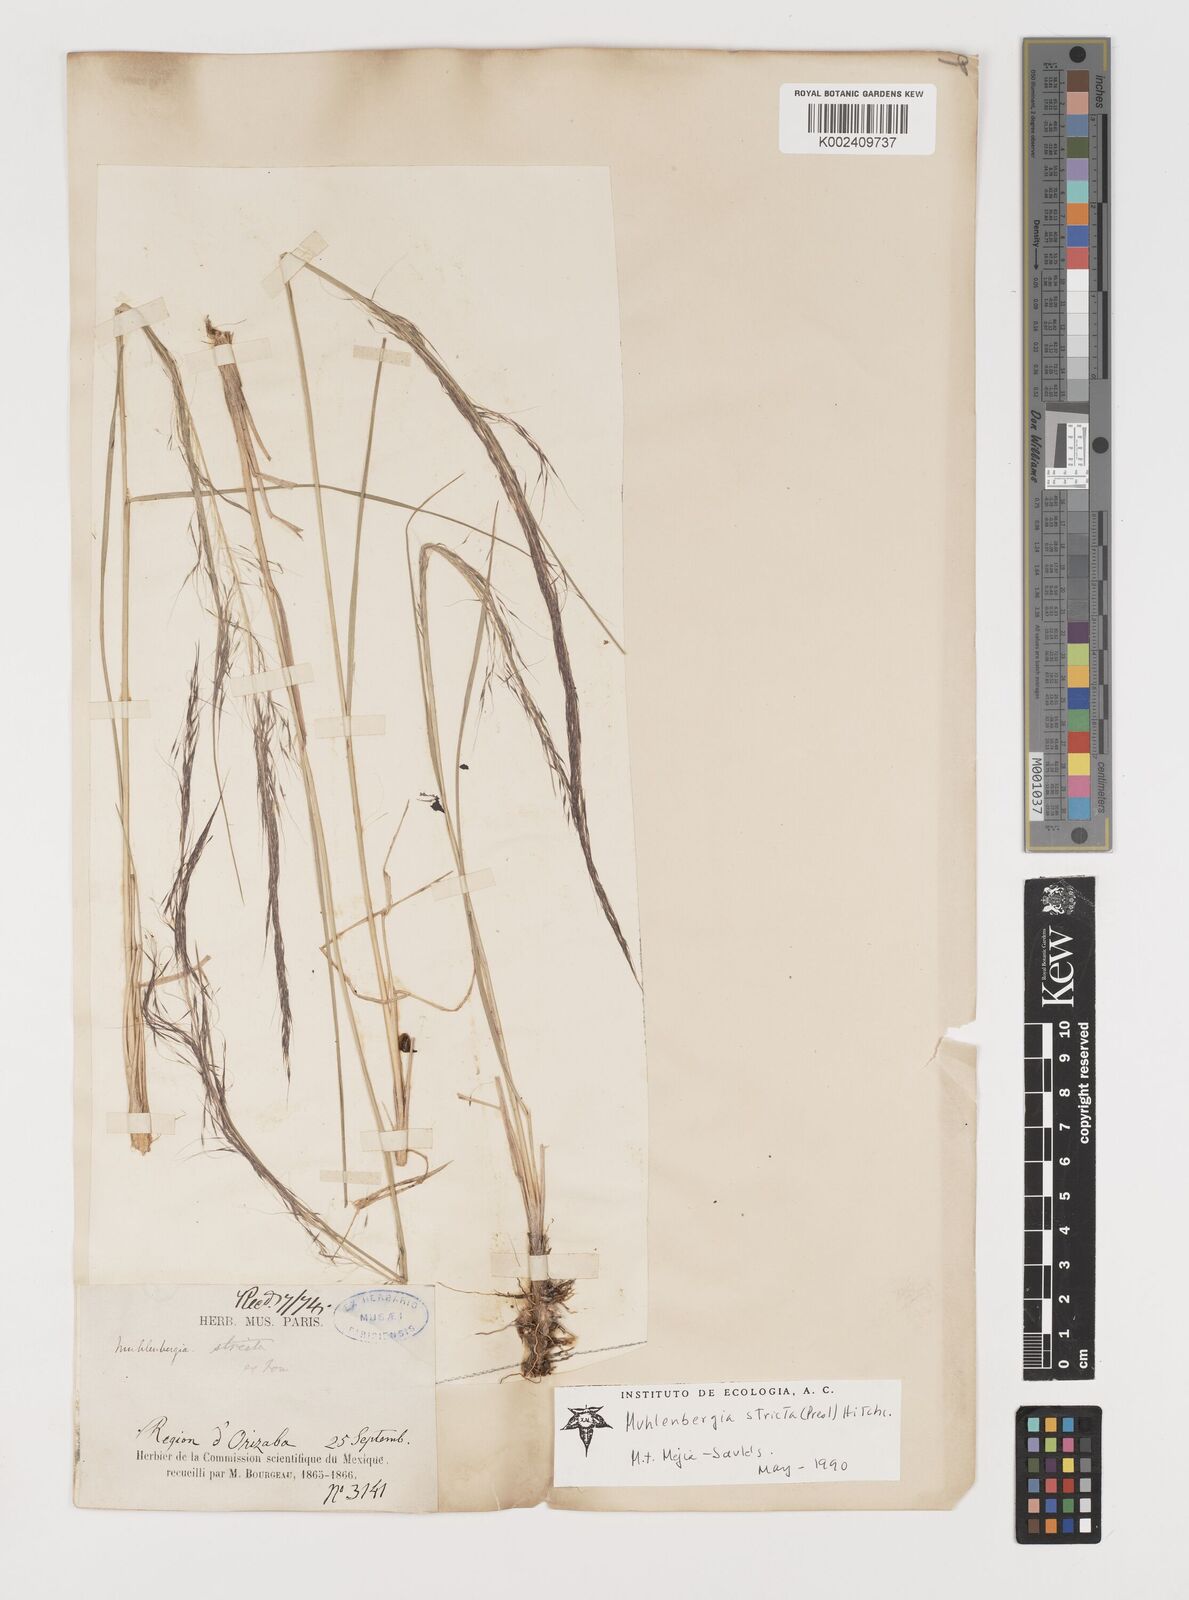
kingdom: Plantae
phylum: Tracheophyta
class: Liliopsida
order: Poales
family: Poaceae
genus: Muhlenbergia
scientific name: Muhlenbergia rigida
